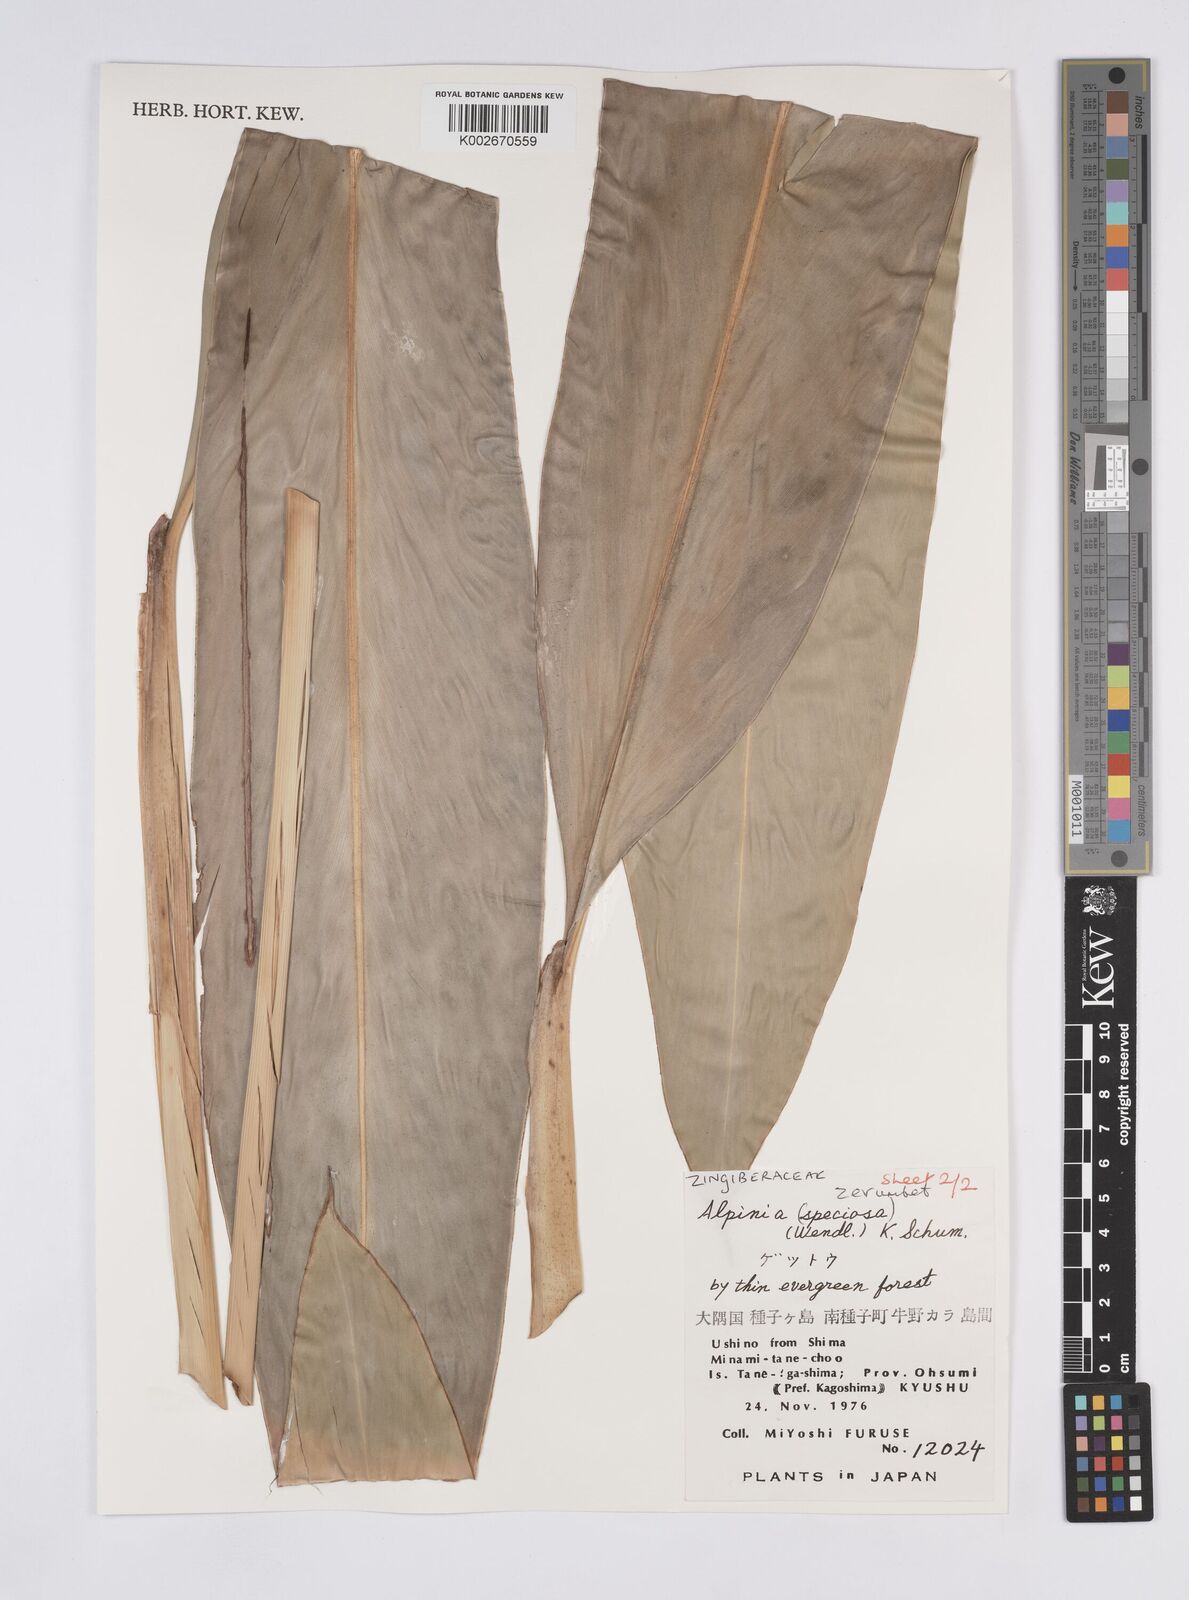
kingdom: Plantae
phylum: Tracheophyta
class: Liliopsida
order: Zingiberales
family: Zingiberaceae
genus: Alpinia
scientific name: Alpinia zerumbet
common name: Shellplant
